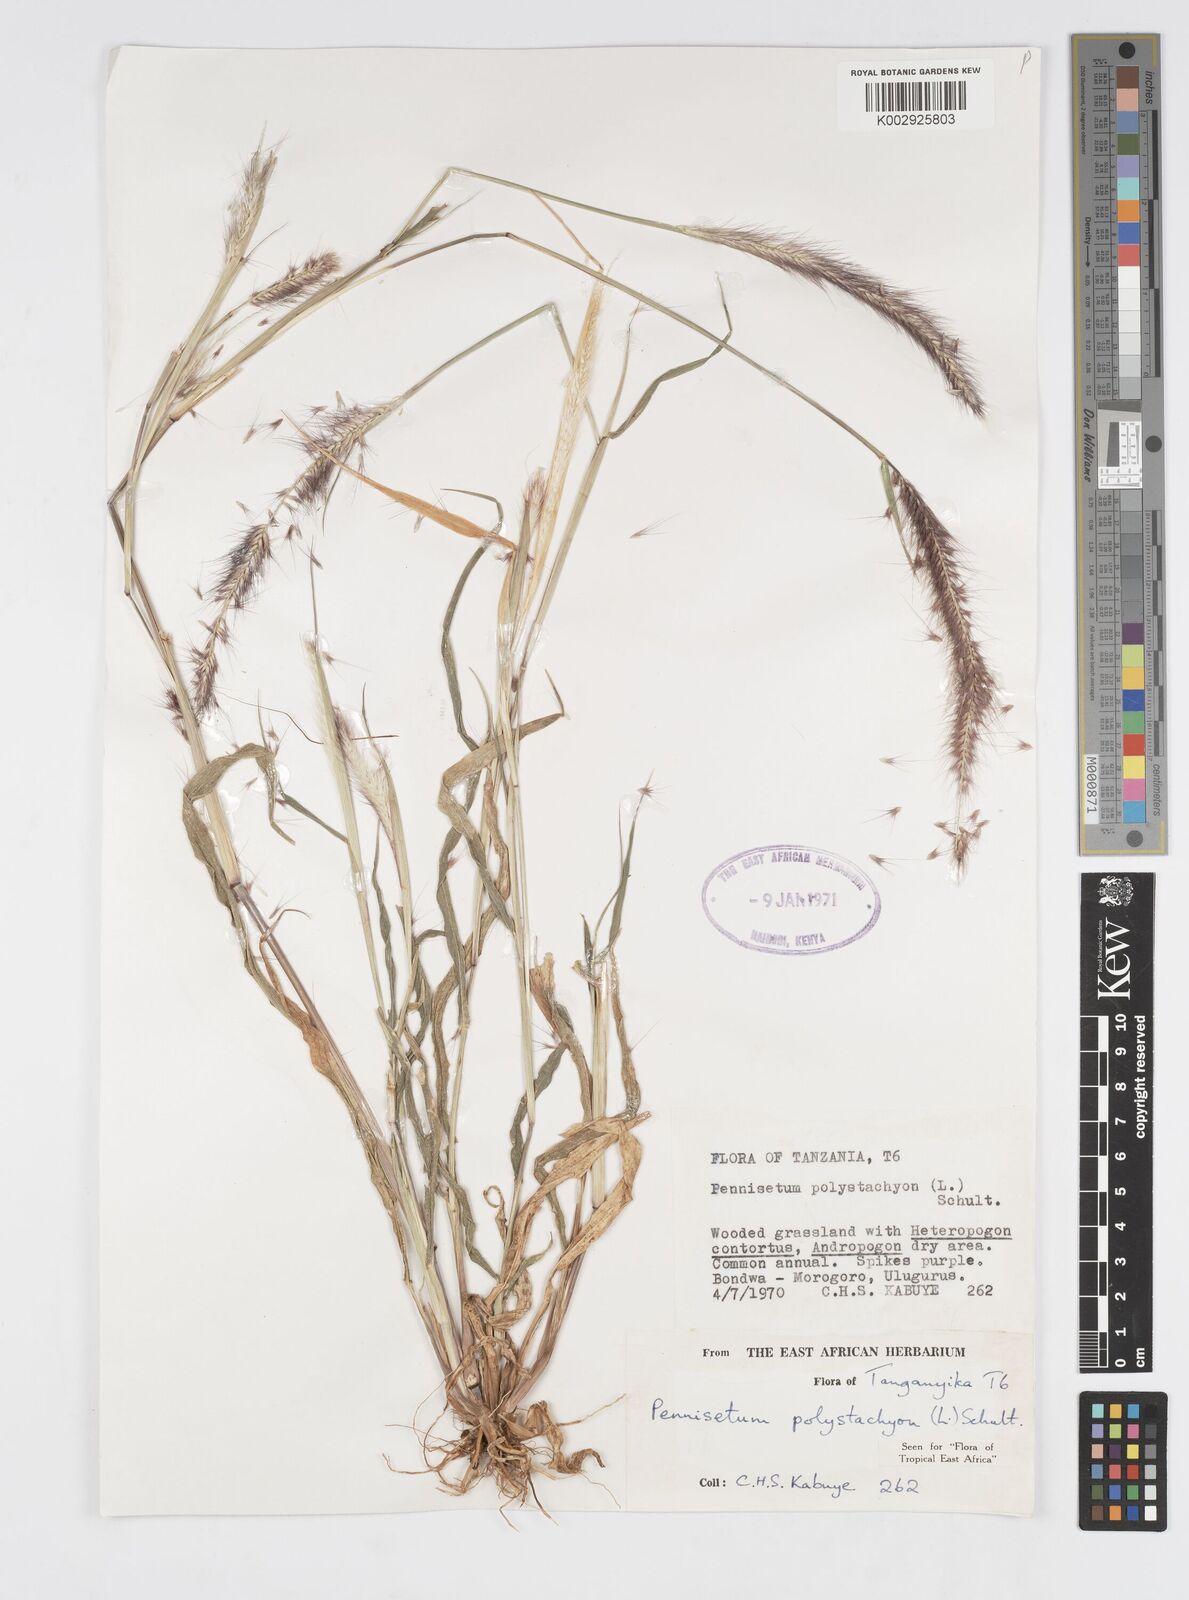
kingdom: Plantae
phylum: Tracheophyta
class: Liliopsida
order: Poales
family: Poaceae
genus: Setaria
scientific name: Setaria parviflora
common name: Knotroot bristle-grass
